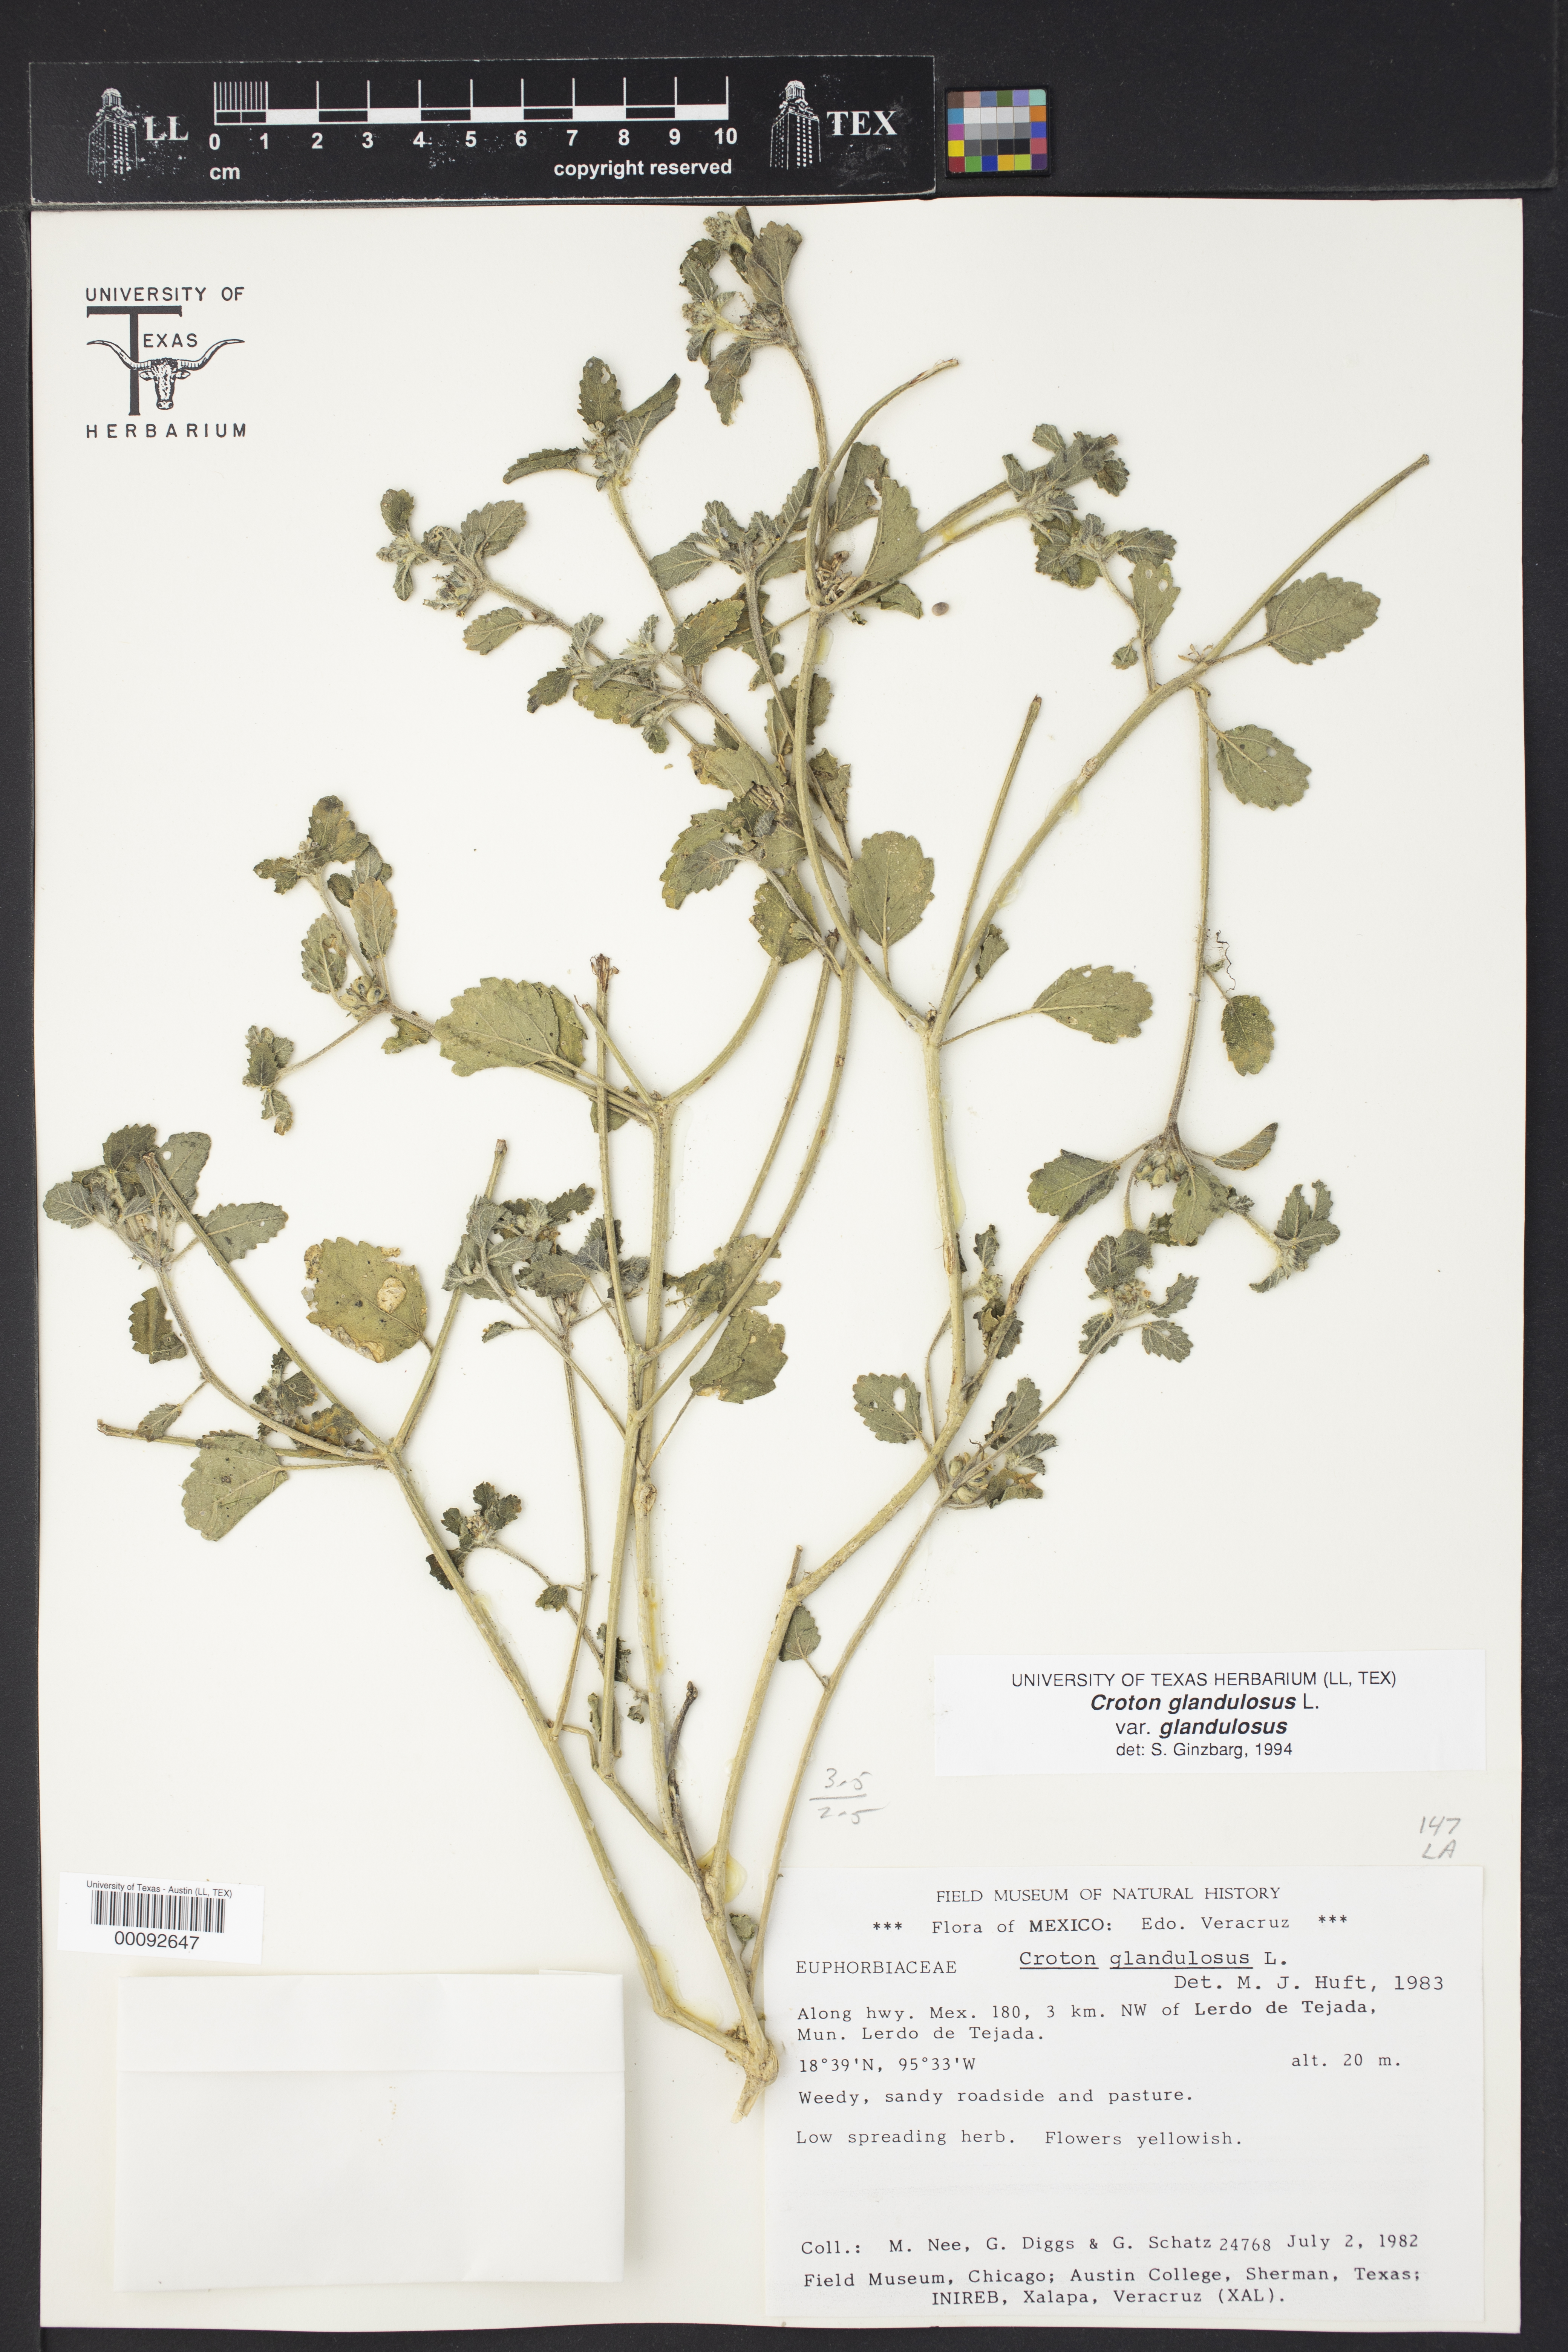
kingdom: Plantae
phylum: Tracheophyta
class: Magnoliopsida
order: Malpighiales
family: Euphorbiaceae
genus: Croton
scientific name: Croton ciliatoglandulifer
